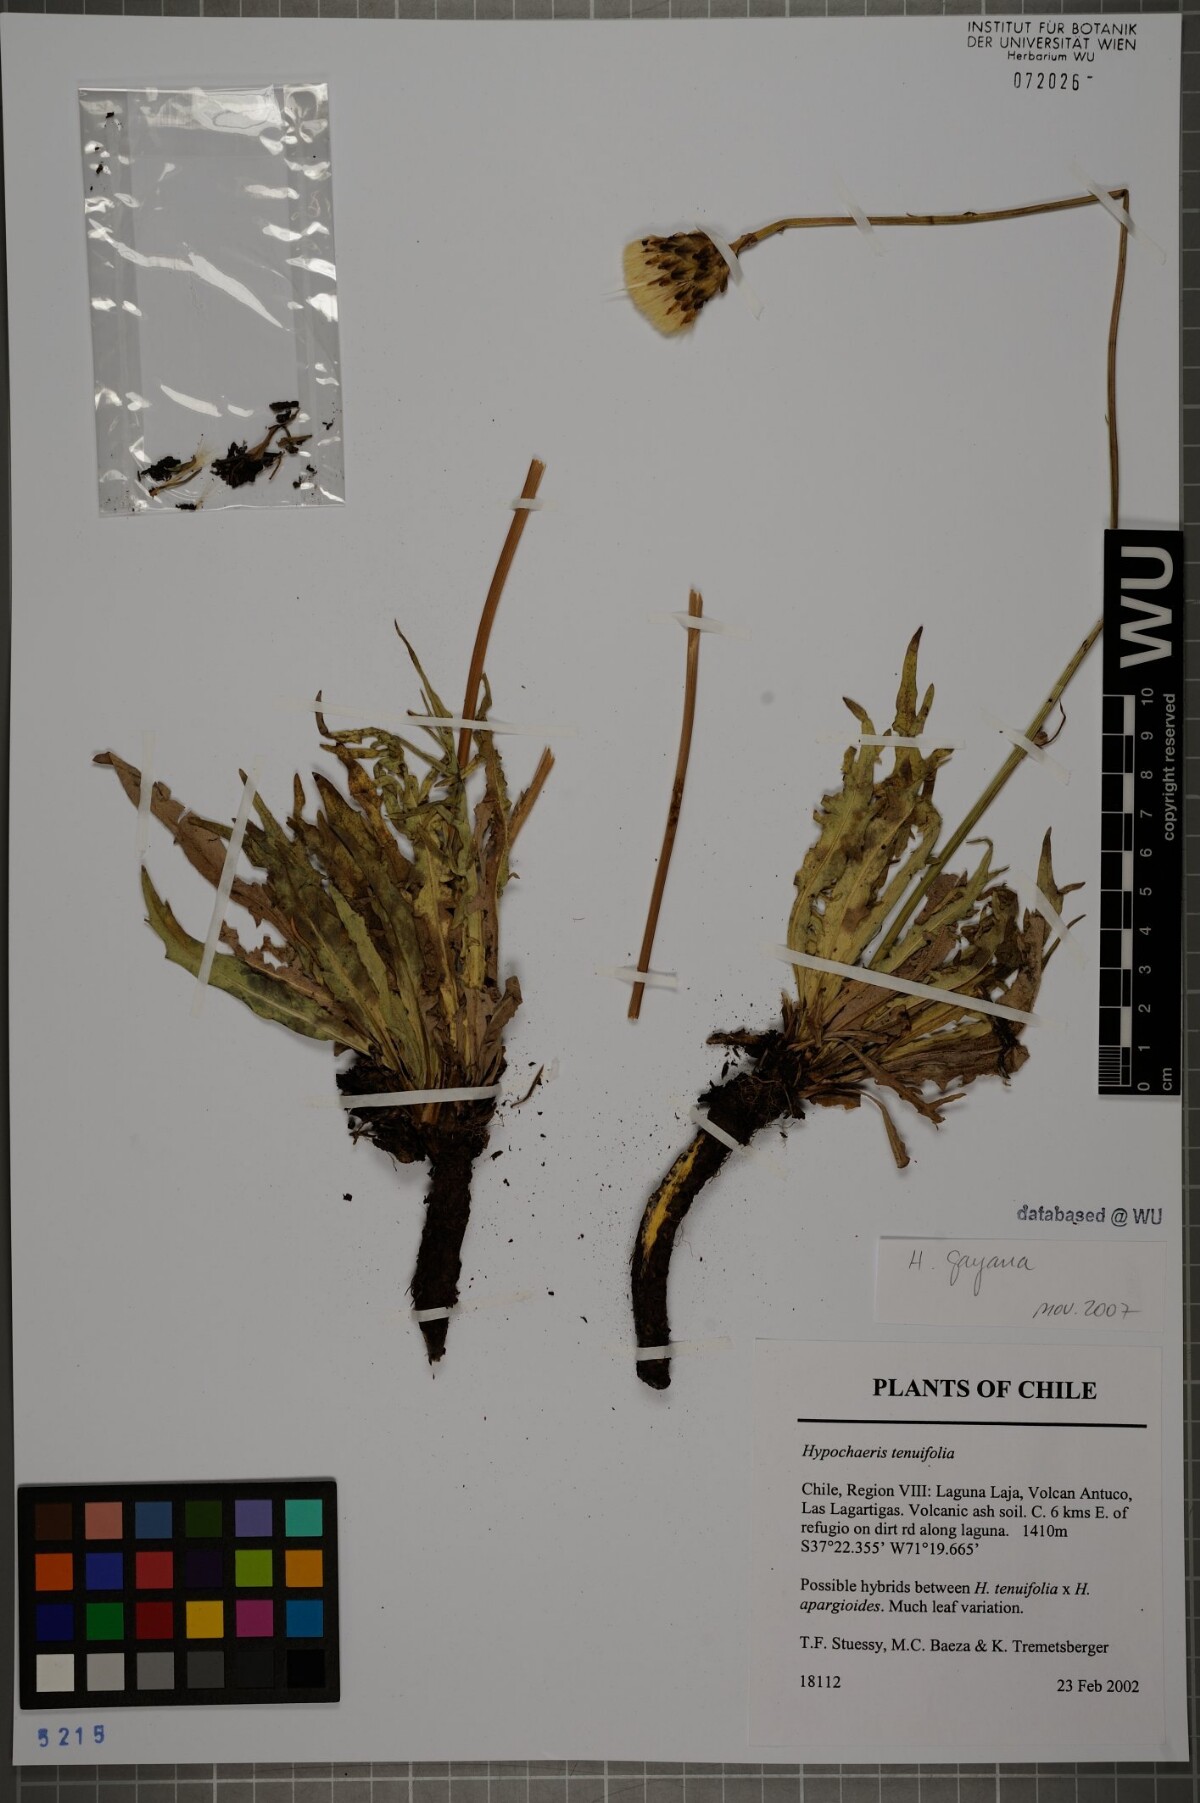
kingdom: Plantae
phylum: Tracheophyta
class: Magnoliopsida
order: Asterales
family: Asteraceae
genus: Hypochaeris
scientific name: Hypochaeris melanolepis
